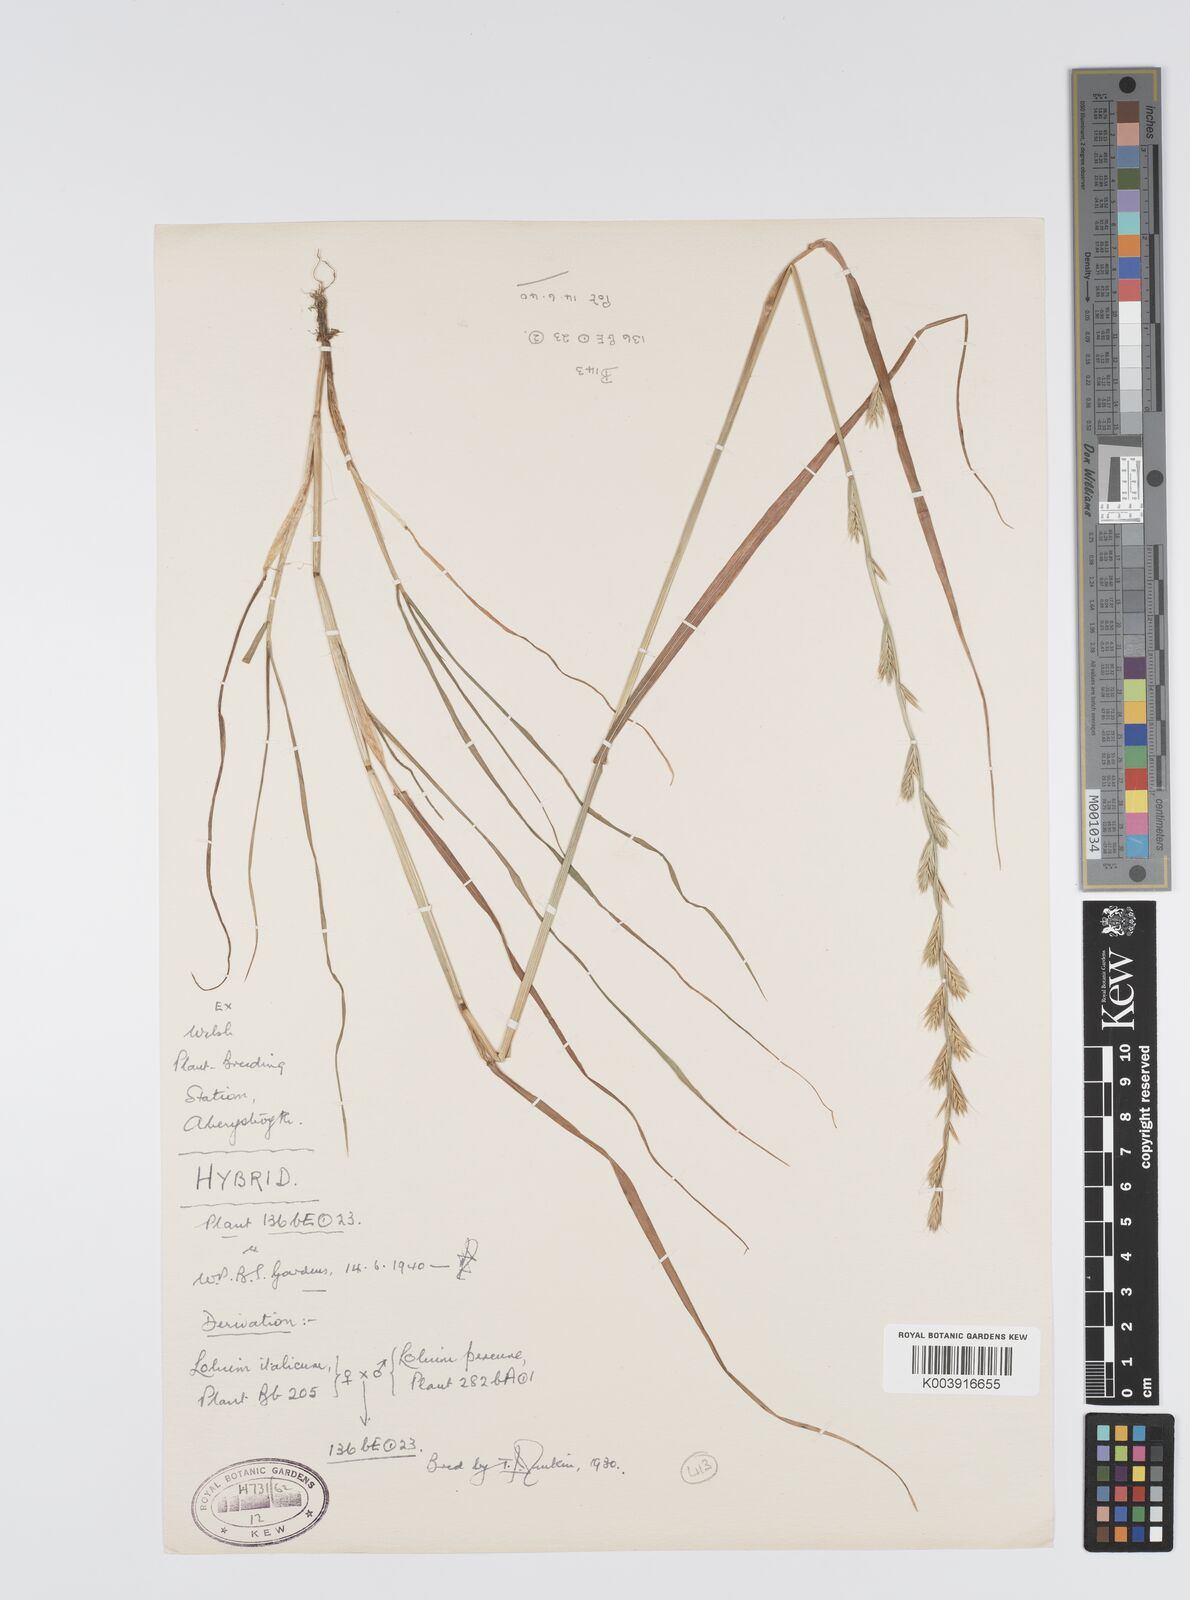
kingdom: Plantae
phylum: Tracheophyta
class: Liliopsida
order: Poales
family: Poaceae
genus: Lolium
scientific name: Lolium perenne
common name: Perennial ryegrass
